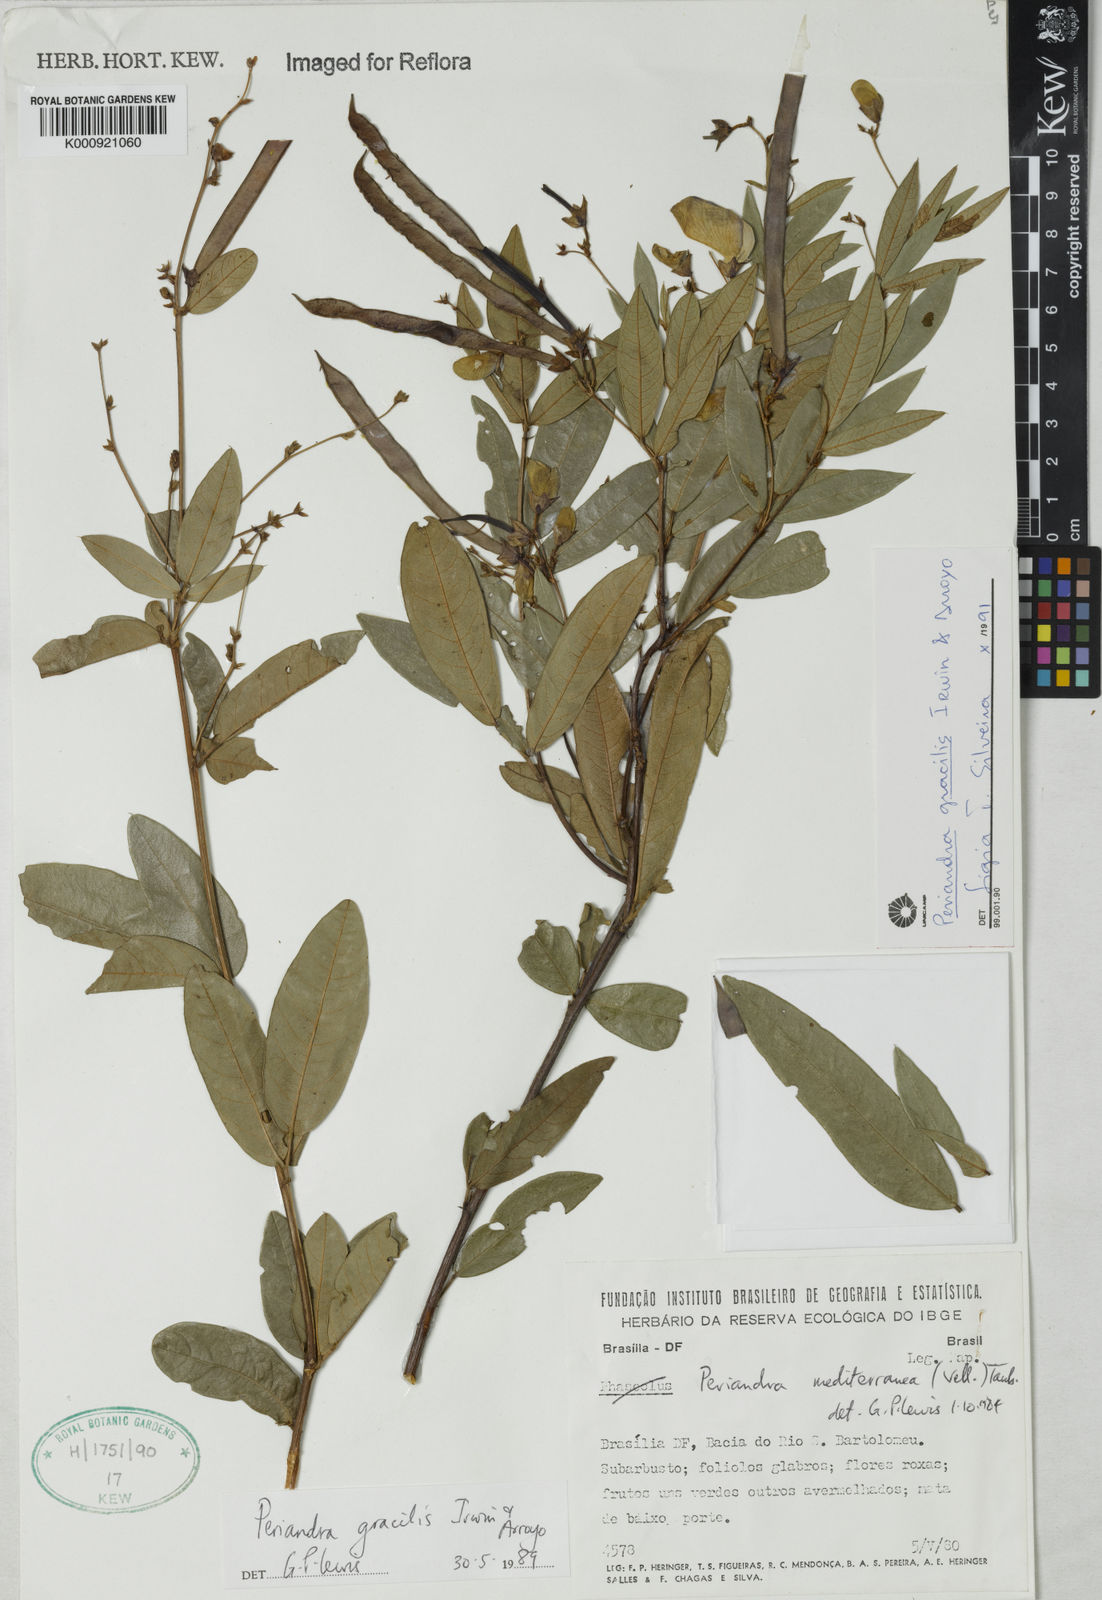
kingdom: Plantae
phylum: Tracheophyta
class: Magnoliopsida
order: Fabales
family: Fabaceae
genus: Periandra
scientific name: Periandra gracilis
